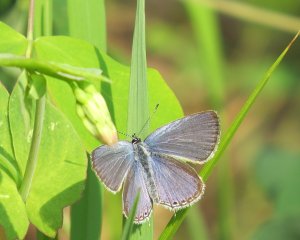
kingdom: Animalia
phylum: Arthropoda
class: Insecta
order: Lepidoptera
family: Lycaenidae
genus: Elkalyce
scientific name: Elkalyce amyntula
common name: Western Tailed-Blue
